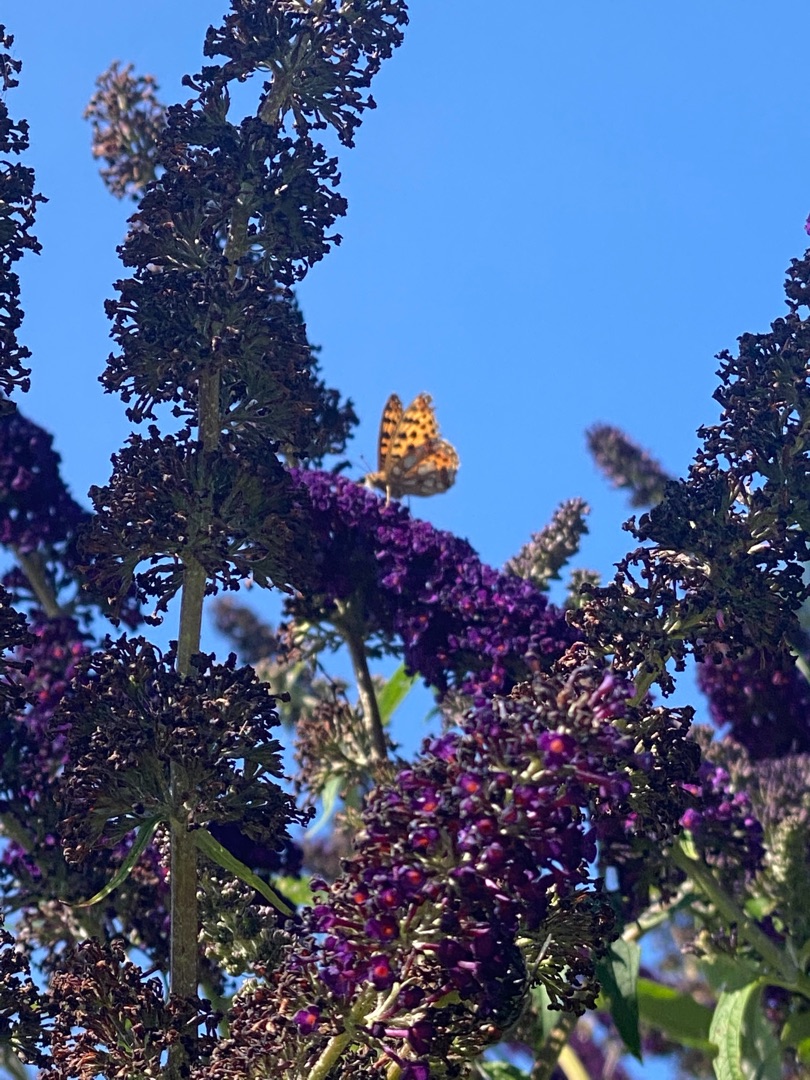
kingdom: Animalia
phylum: Arthropoda
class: Insecta
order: Lepidoptera
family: Nymphalidae
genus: Issoria
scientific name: Issoria lathonia
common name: Storplettet perlemorsommerfugl
